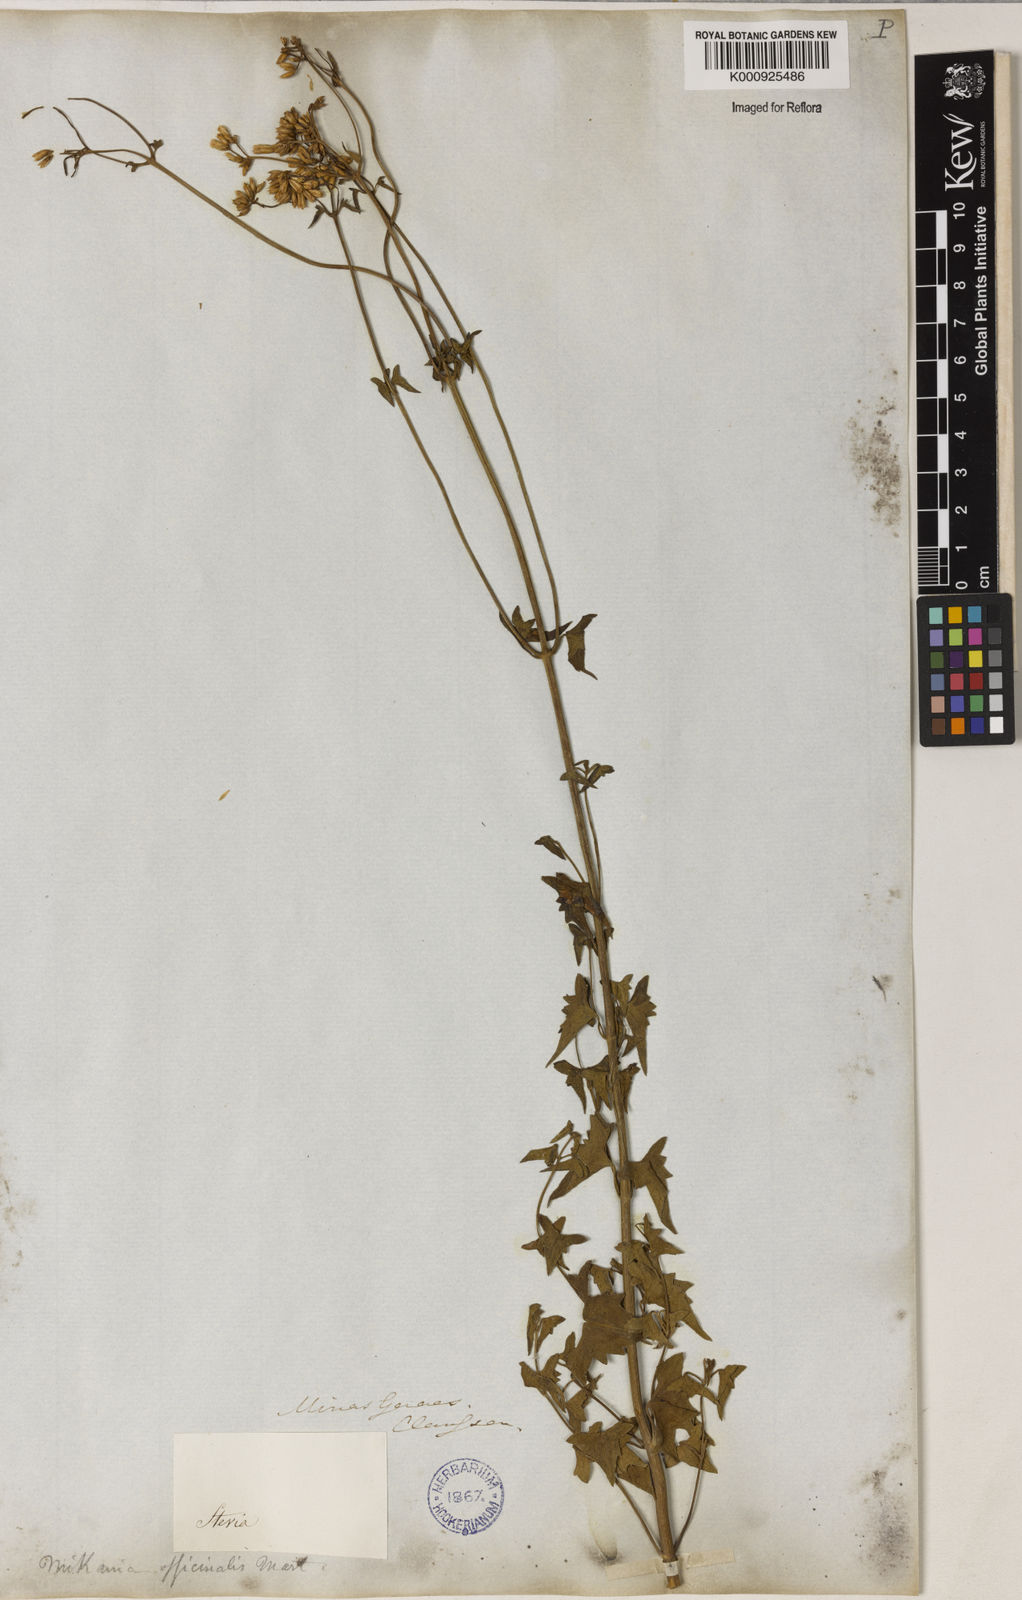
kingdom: Plantae
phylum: Tracheophyta
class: Magnoliopsida
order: Asterales
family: Asteraceae
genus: Mikania
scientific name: Mikania officinalis
